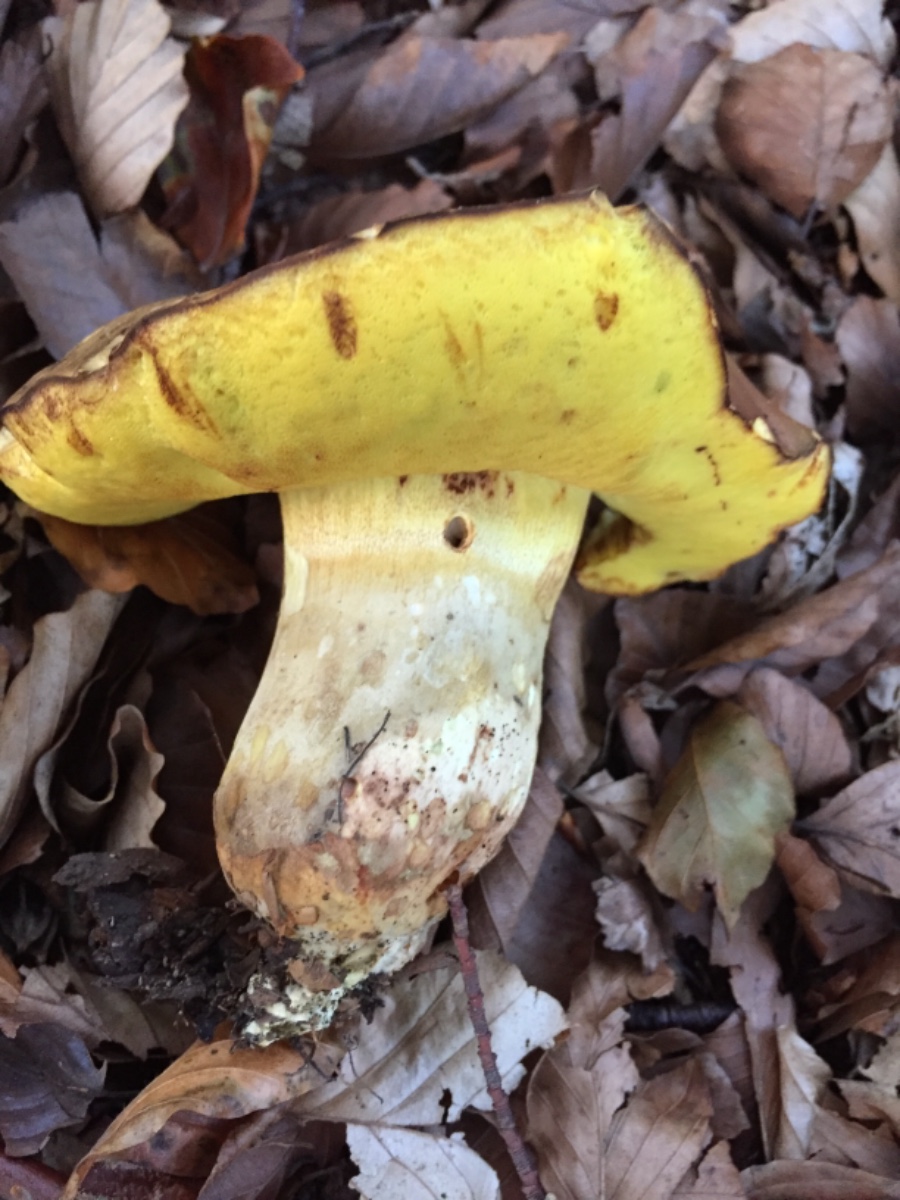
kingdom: Fungi
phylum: Basidiomycota
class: Agaricomycetes
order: Boletales
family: Boletaceae
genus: Butyriboletus
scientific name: Butyriboletus appendiculatus
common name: tenstokket rørhat
